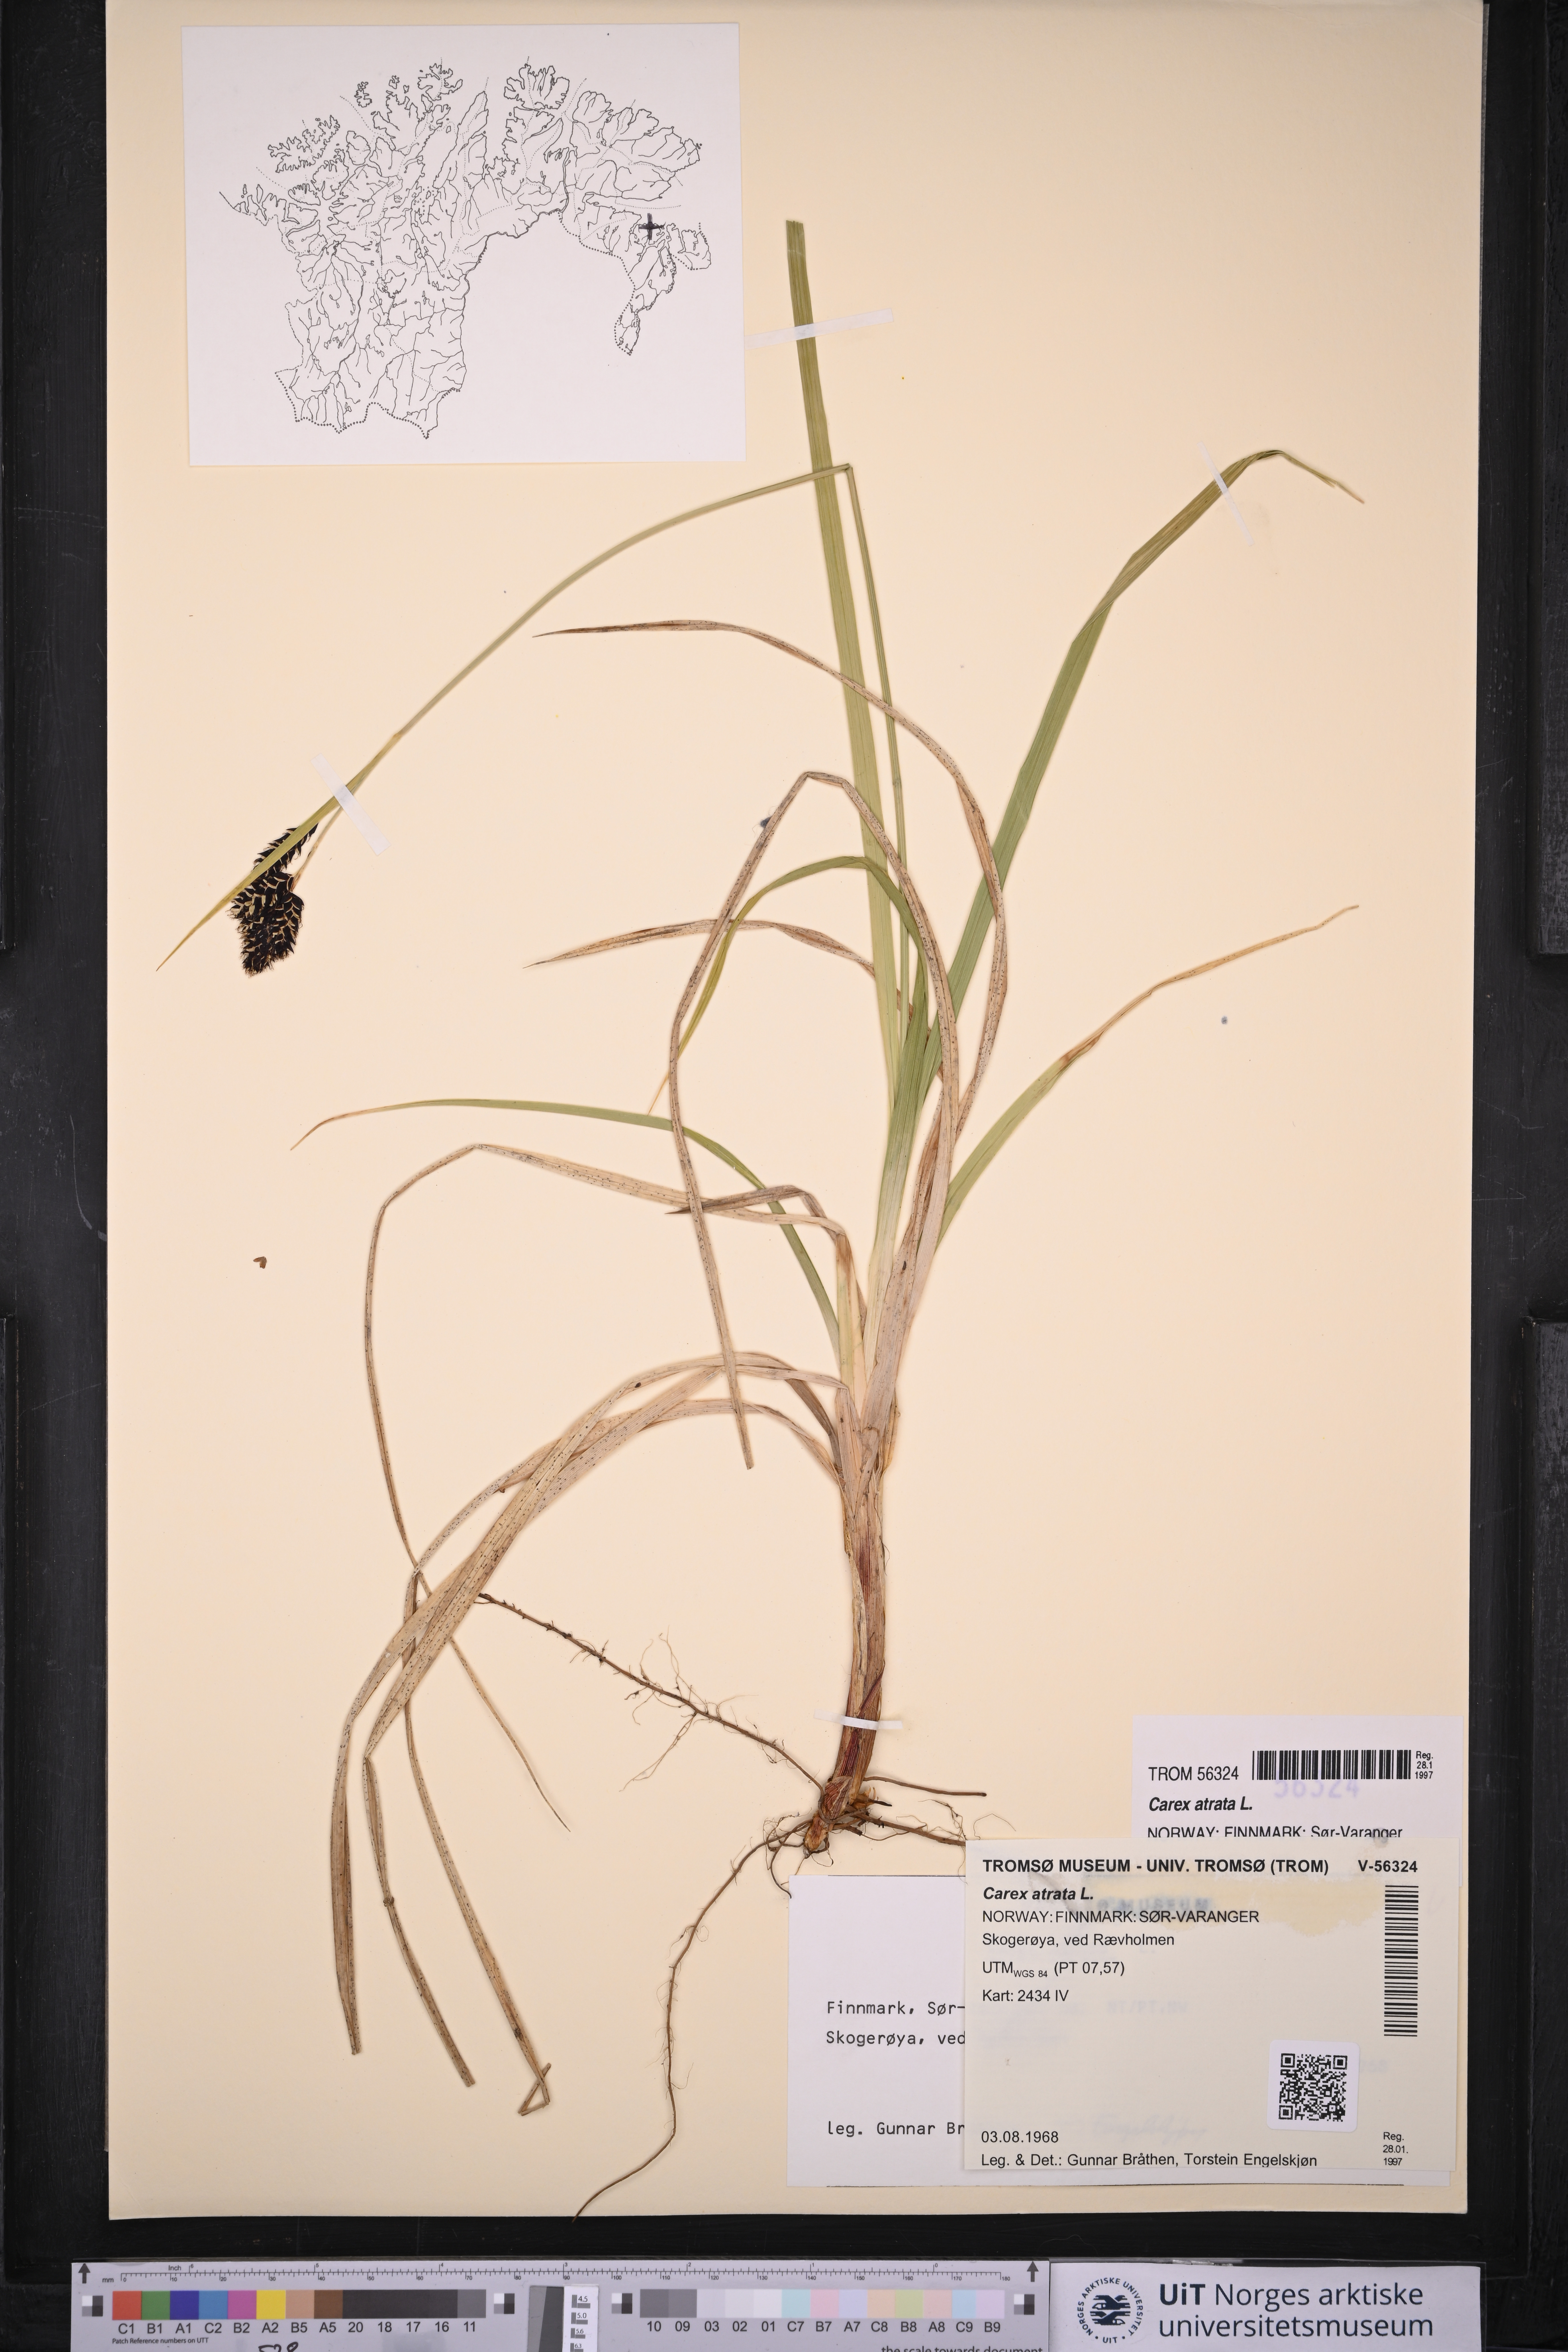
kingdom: Plantae
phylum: Tracheophyta
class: Liliopsida
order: Poales
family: Cyperaceae
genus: Carex
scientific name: Carex atrata
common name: Black alpine sedge
